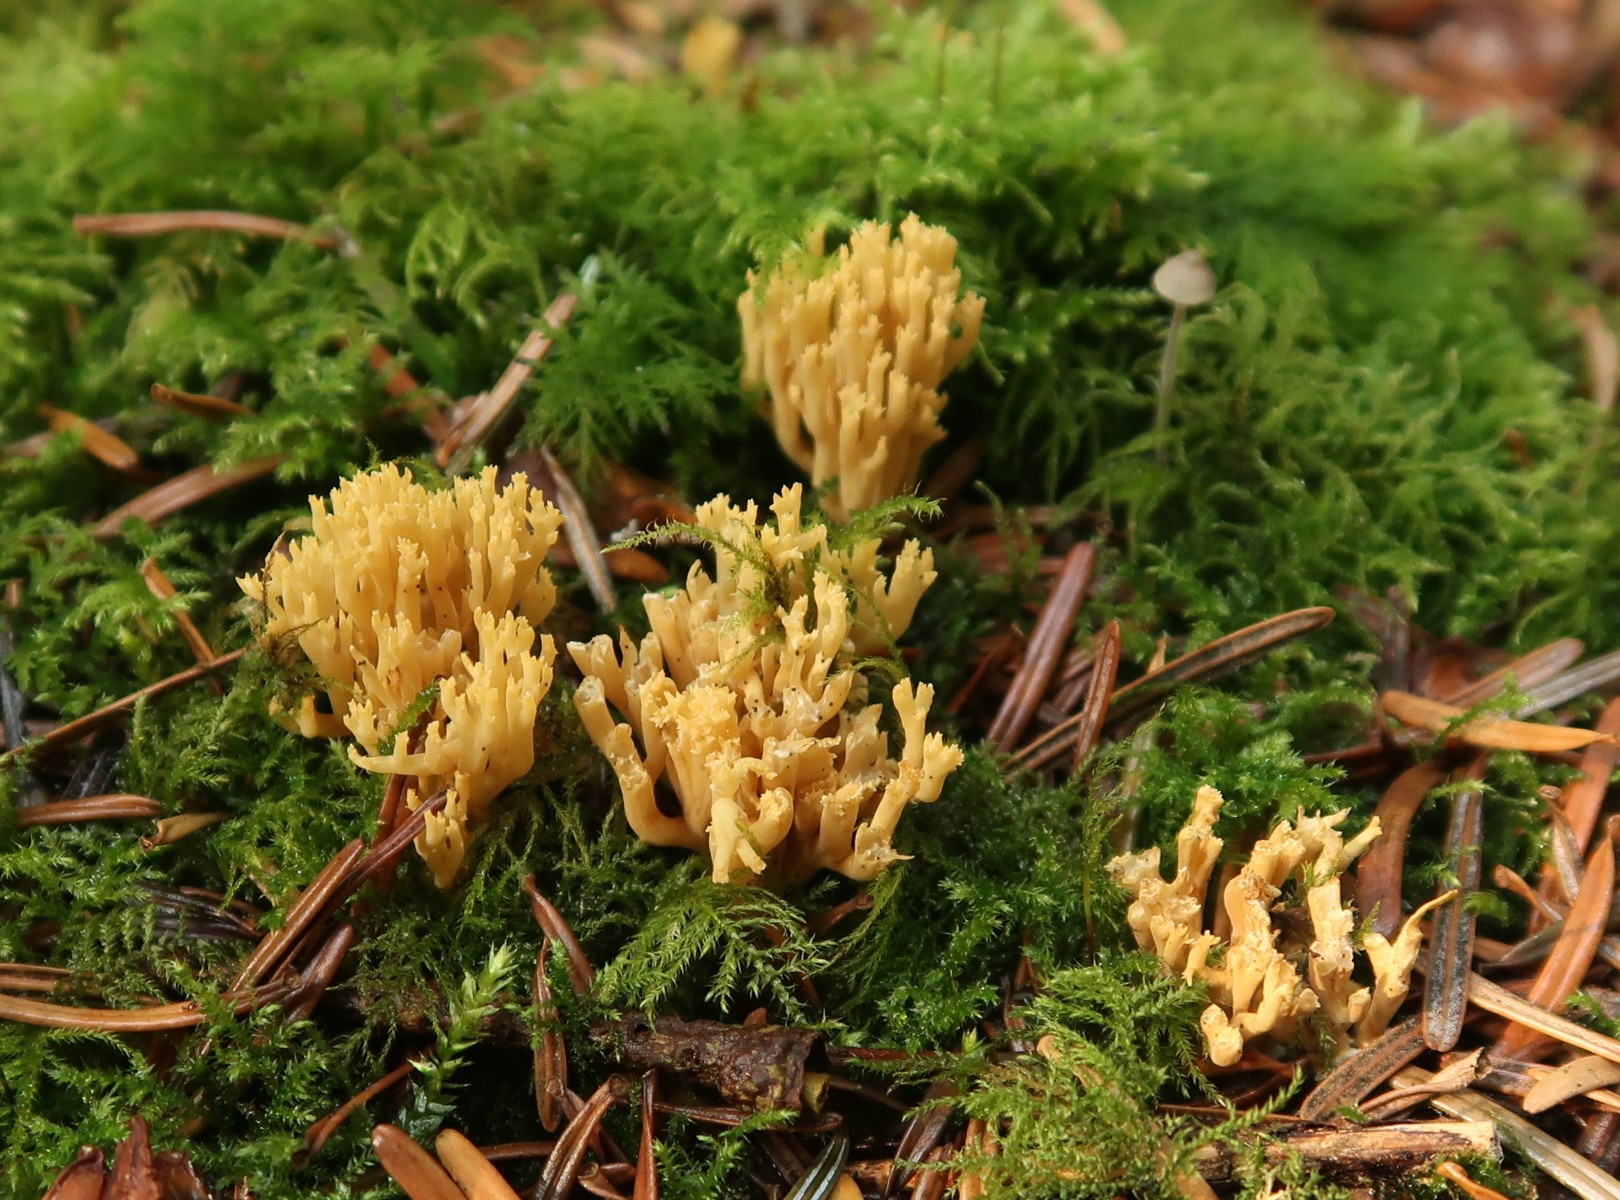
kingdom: Fungi
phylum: Basidiomycota
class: Agaricomycetes
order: Gomphales
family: Gomphaceae
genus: Phaeoclavulina
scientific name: Phaeoclavulina eumorpha
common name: gran-koralsvamp
